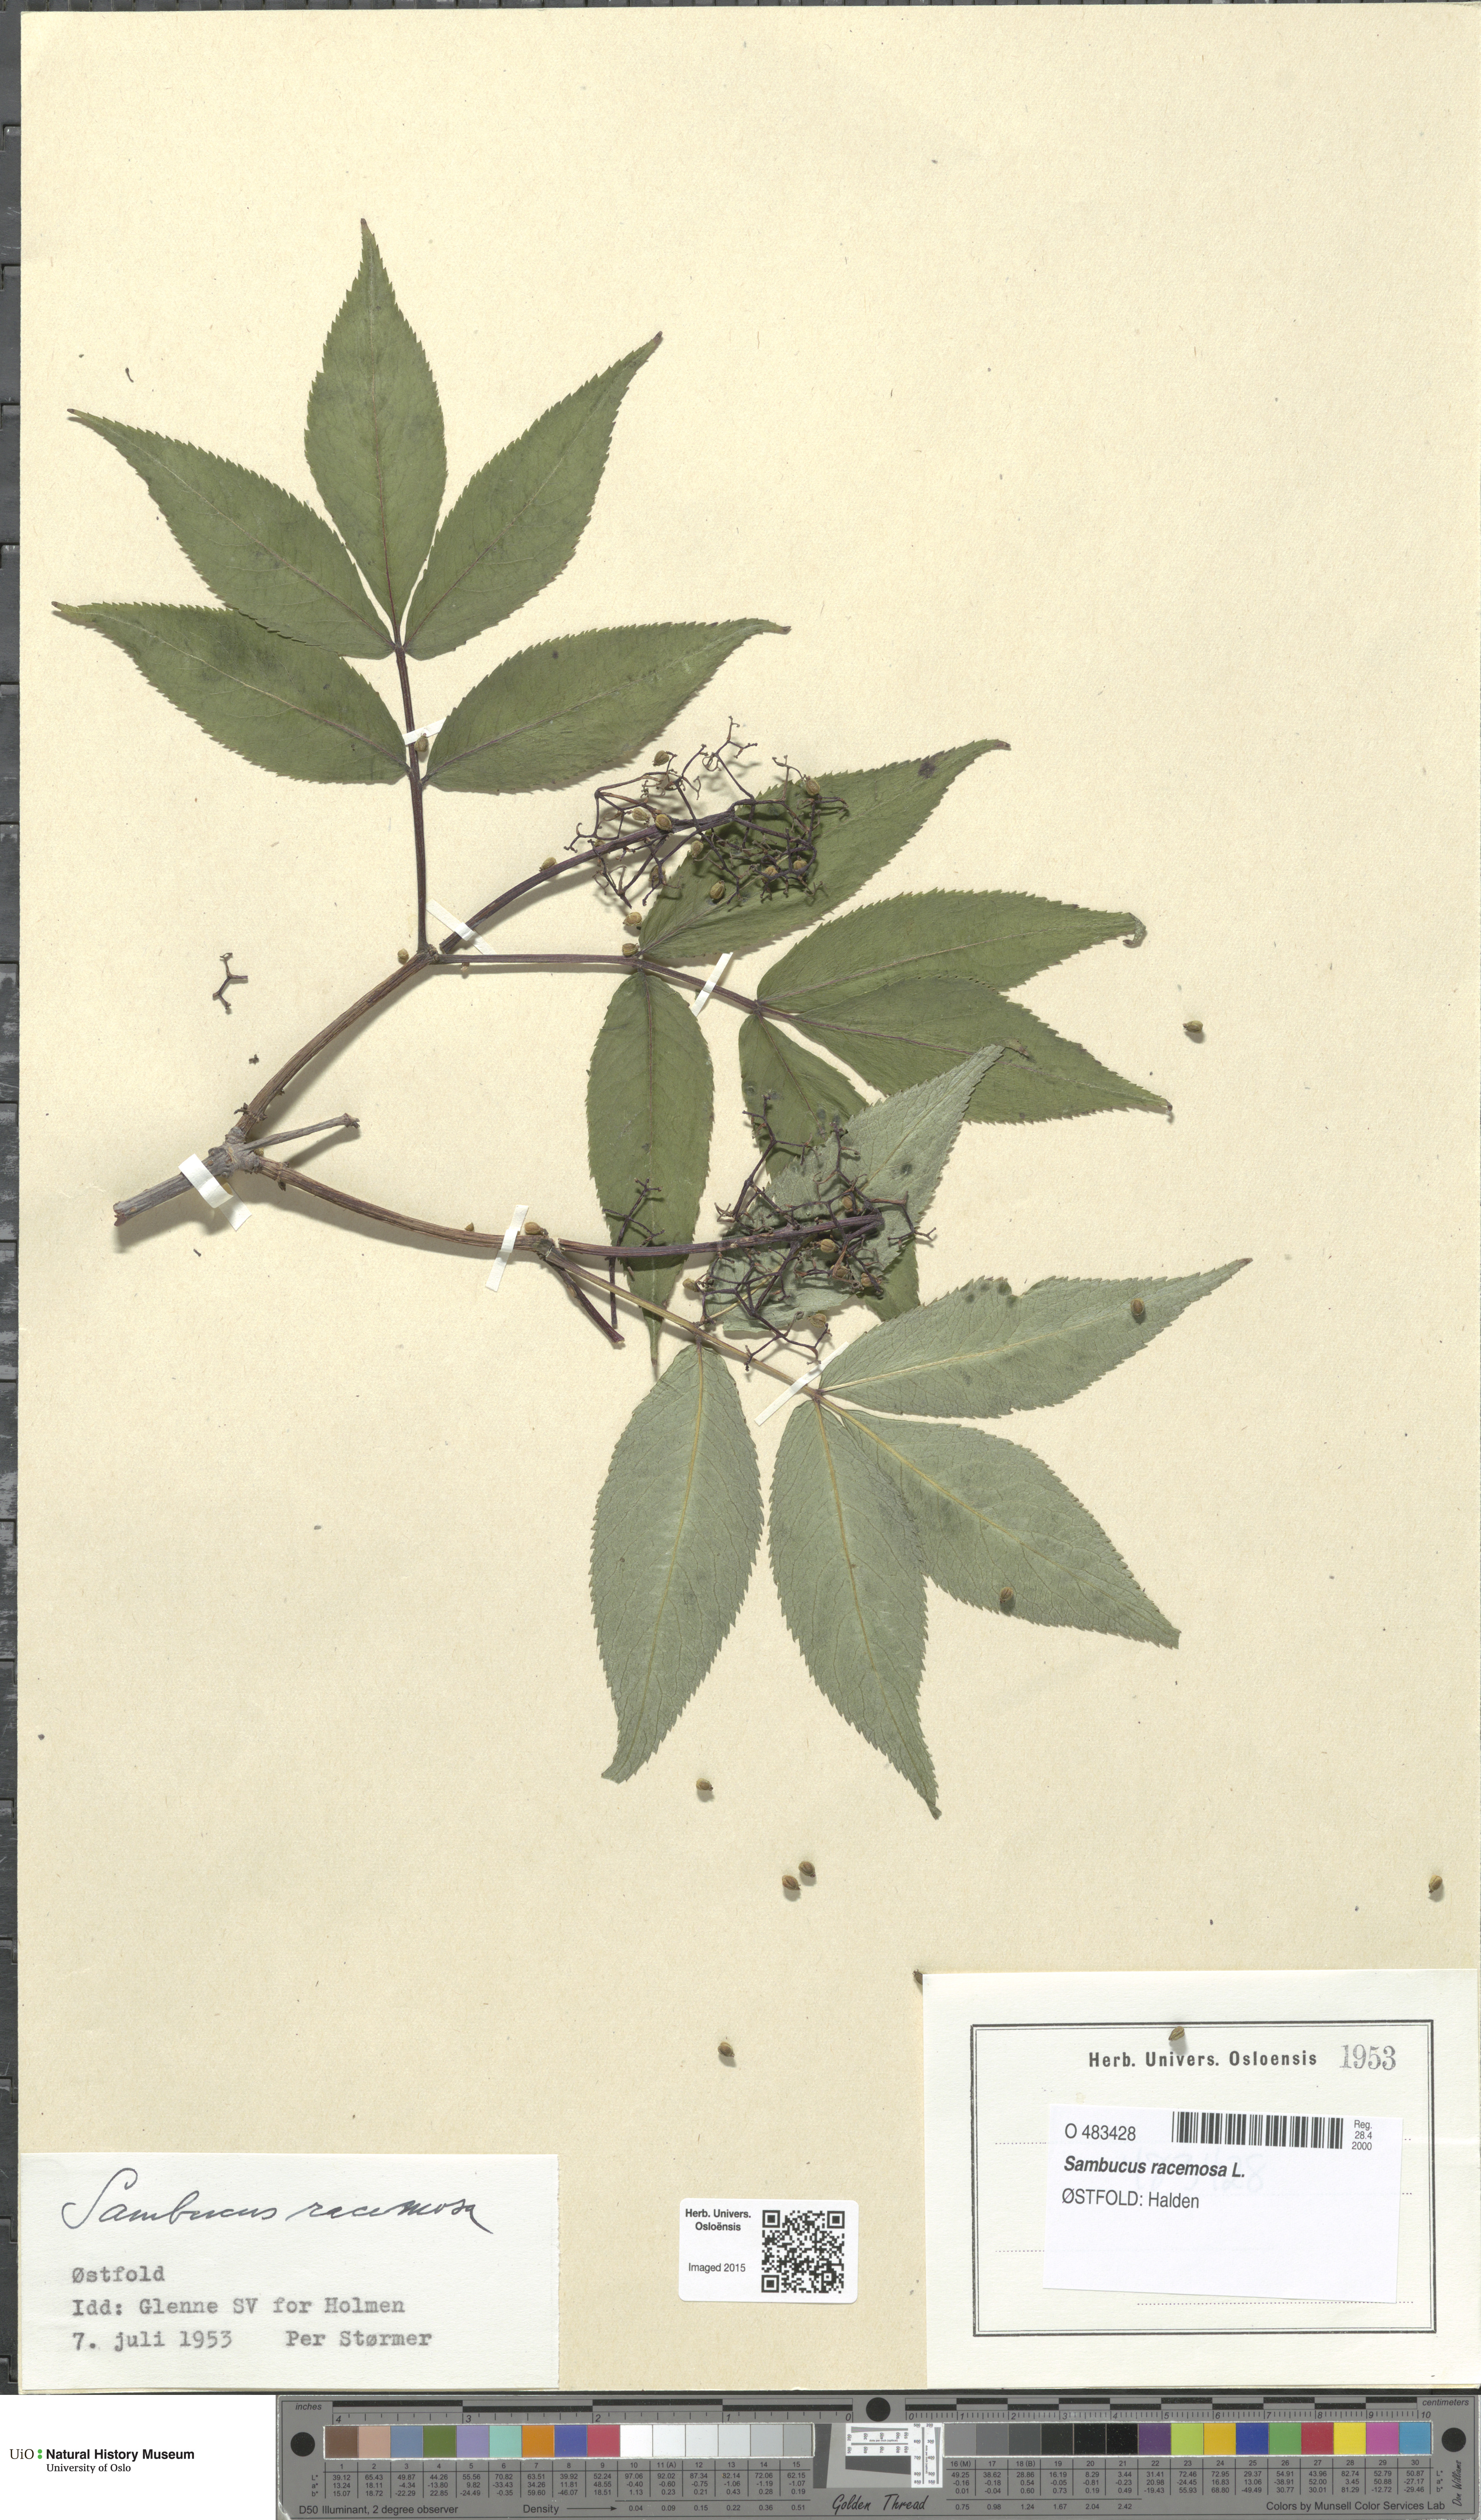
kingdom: Plantae
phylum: Tracheophyta
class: Magnoliopsida
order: Dipsacales
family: Viburnaceae
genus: Sambucus
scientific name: Sambucus racemosa
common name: Red-berried elder
